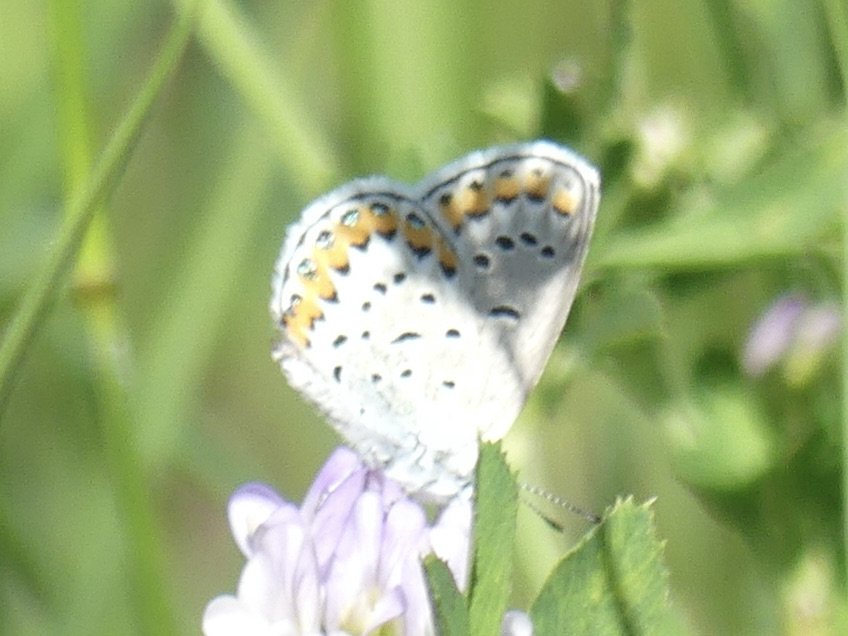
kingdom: Animalia
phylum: Arthropoda
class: Insecta
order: Lepidoptera
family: Lycaenidae
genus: Lycaeides
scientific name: Lycaeides melissa
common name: Melissa Blue
